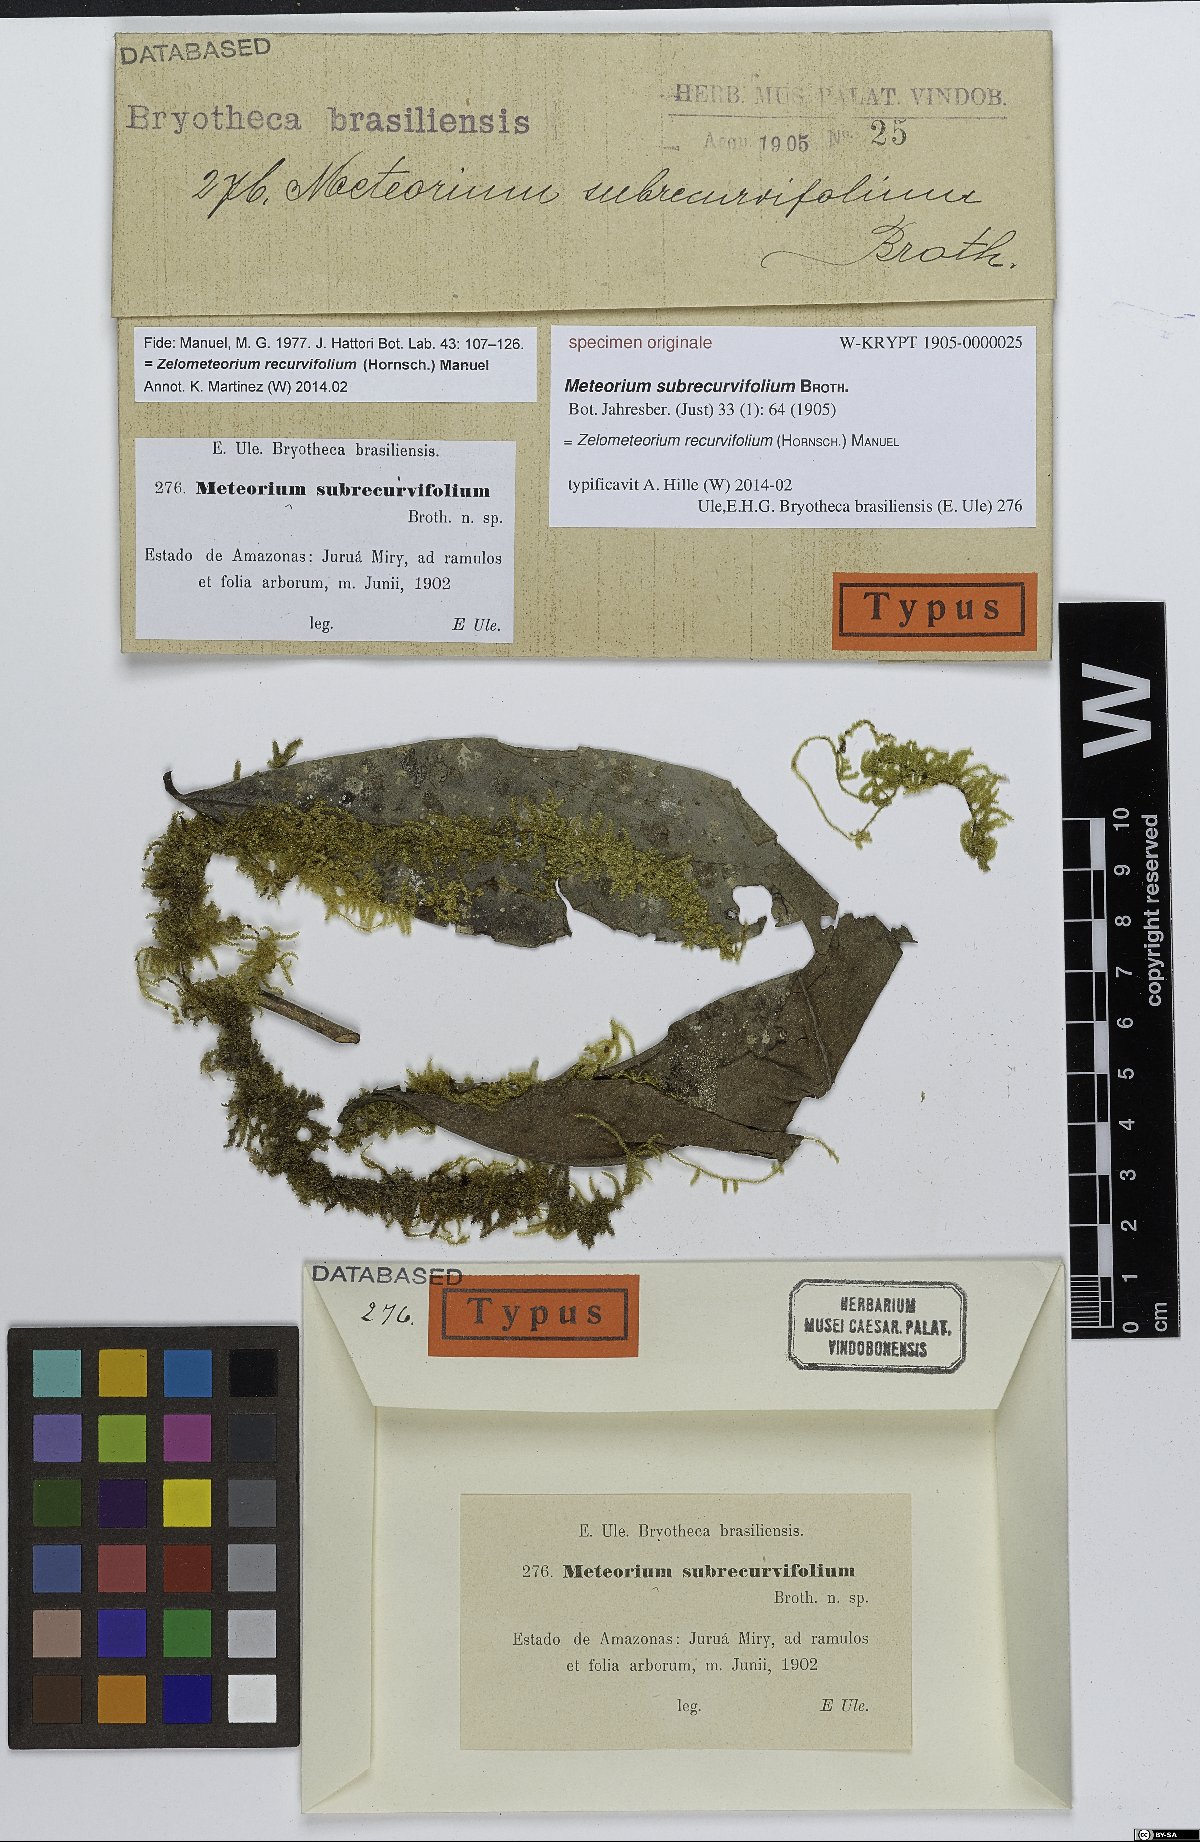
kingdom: Plantae
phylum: Bryophyta
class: Bryopsida
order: Hypnales
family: Meteoriaceae
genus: Meteorium
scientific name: Meteorium
